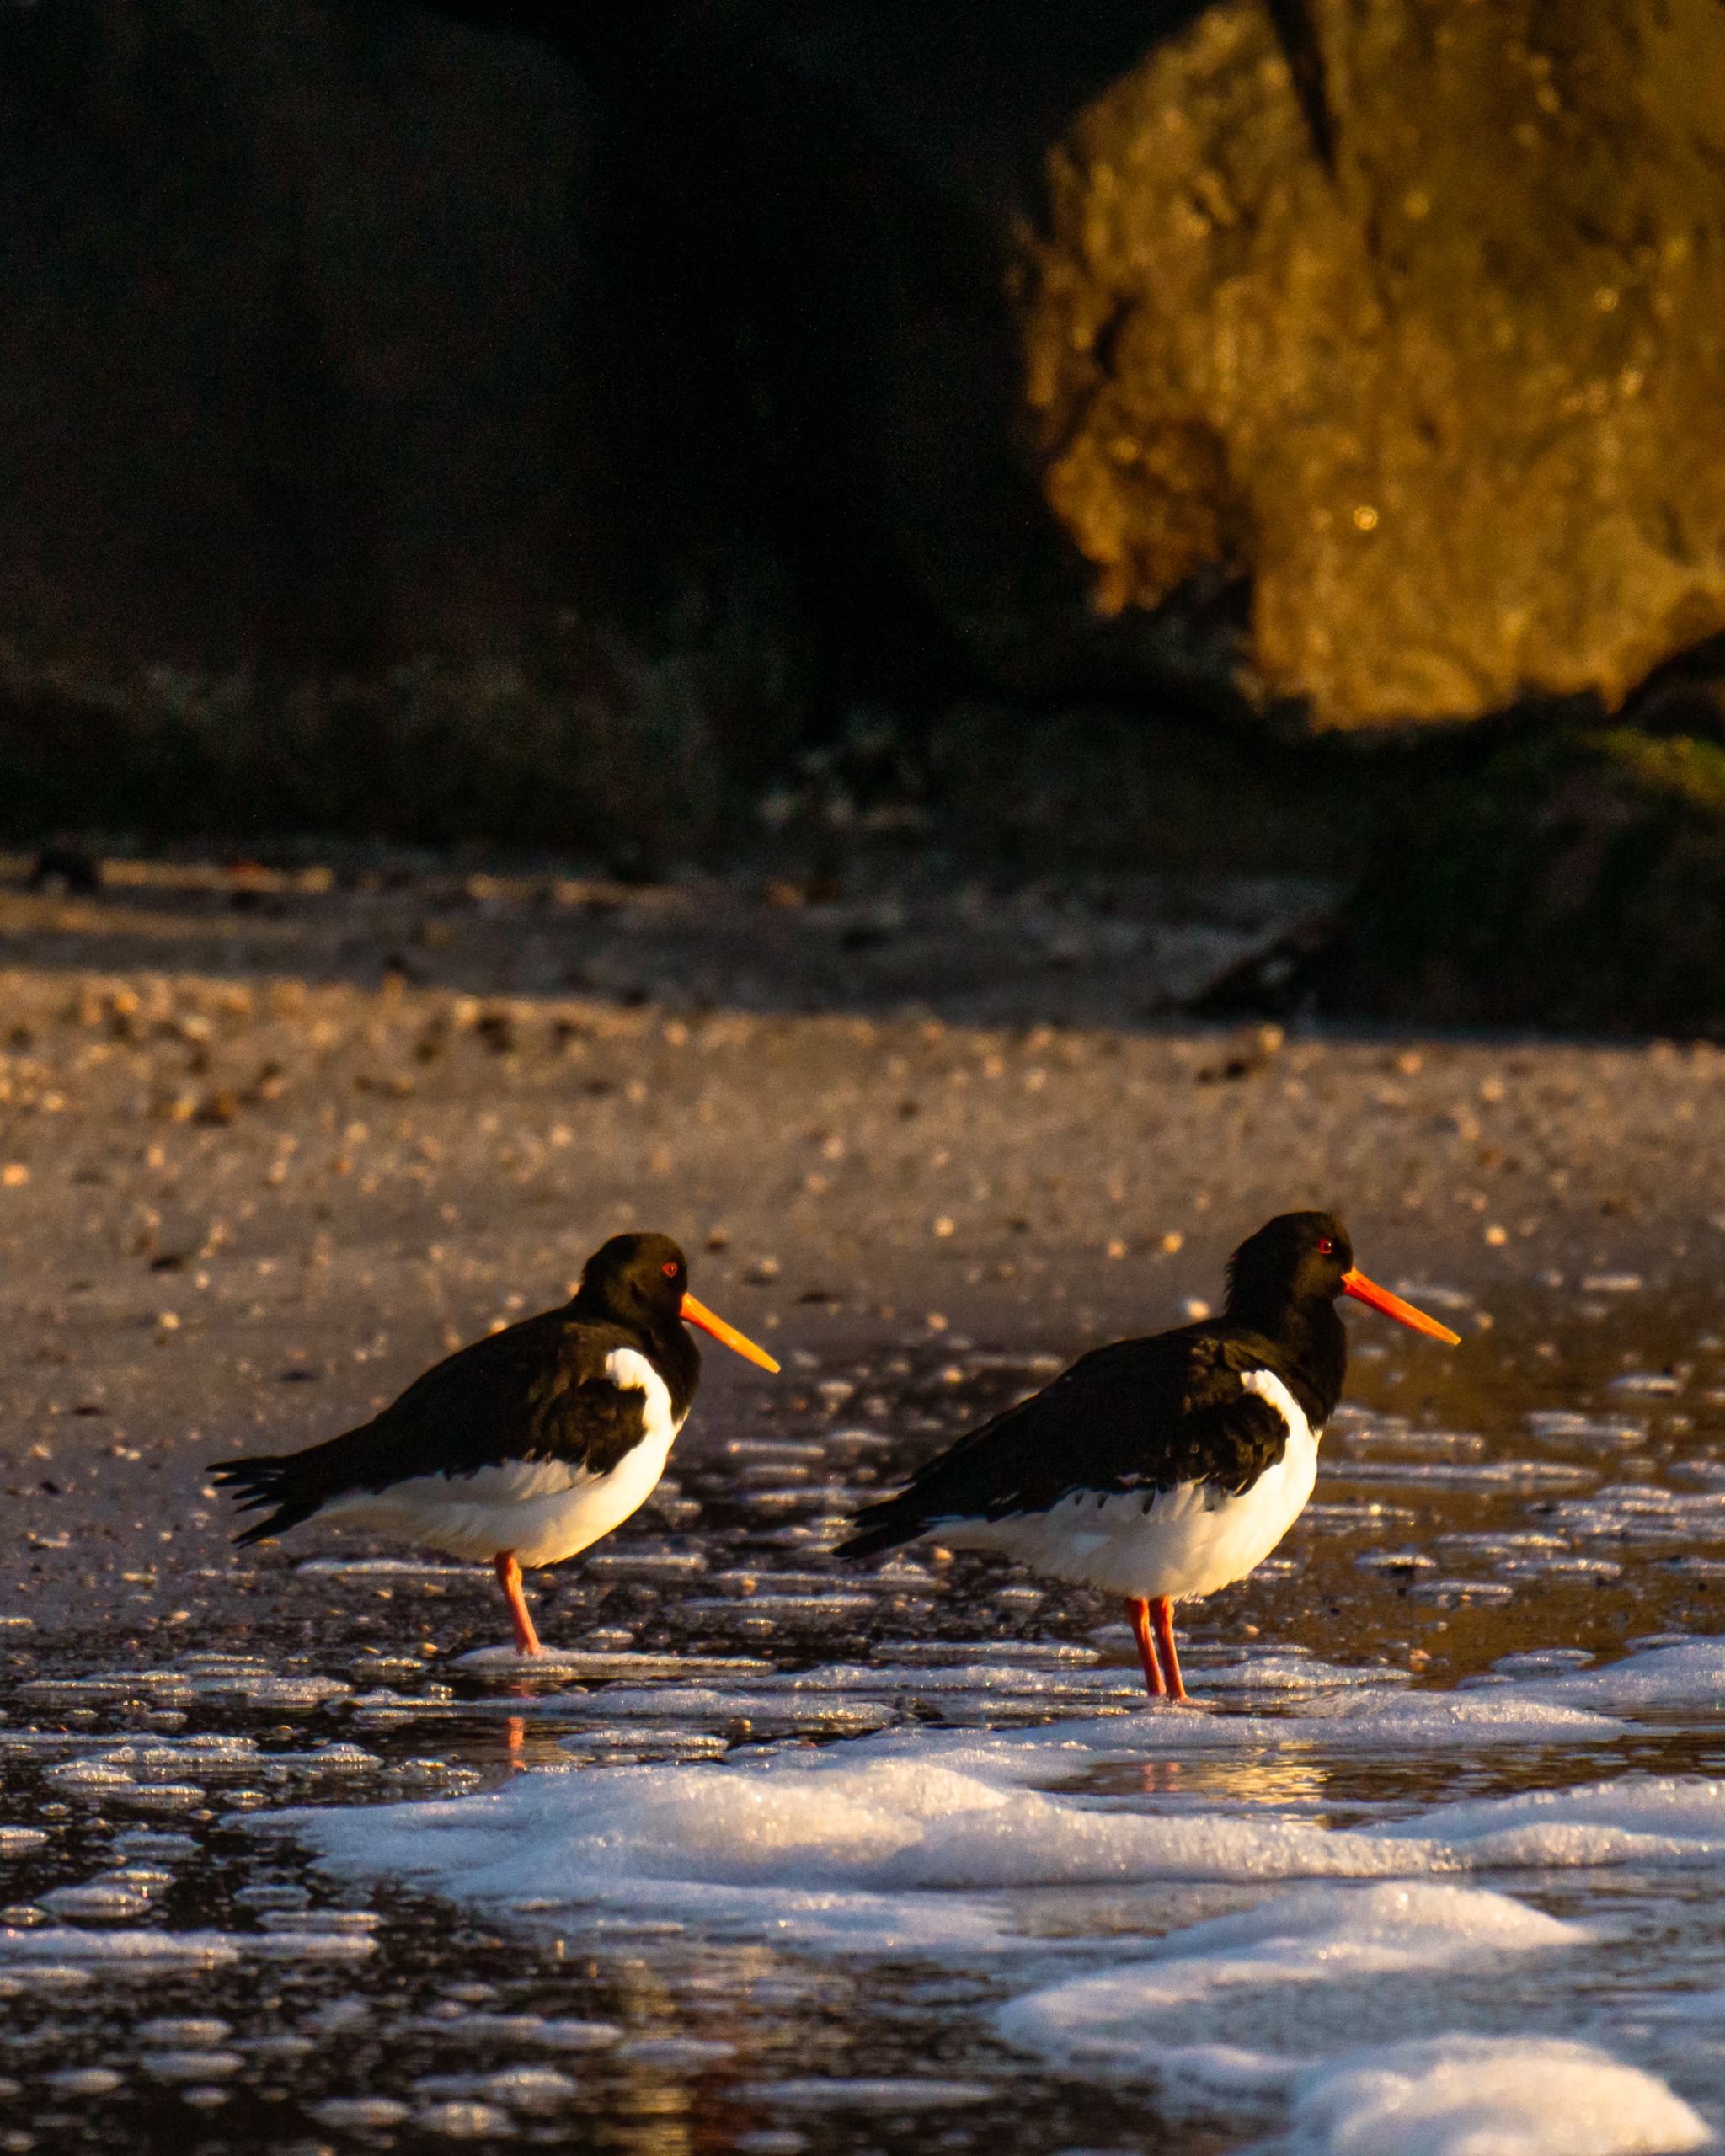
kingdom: Animalia
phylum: Chordata
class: Aves
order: Charadriiformes
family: Haematopodidae
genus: Haematopus
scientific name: Haematopus ostralegus
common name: Strandskade
